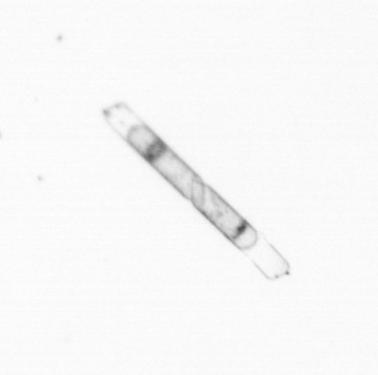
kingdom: Chromista
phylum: Ochrophyta
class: Bacillariophyceae
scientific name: Bacillariophyceae
